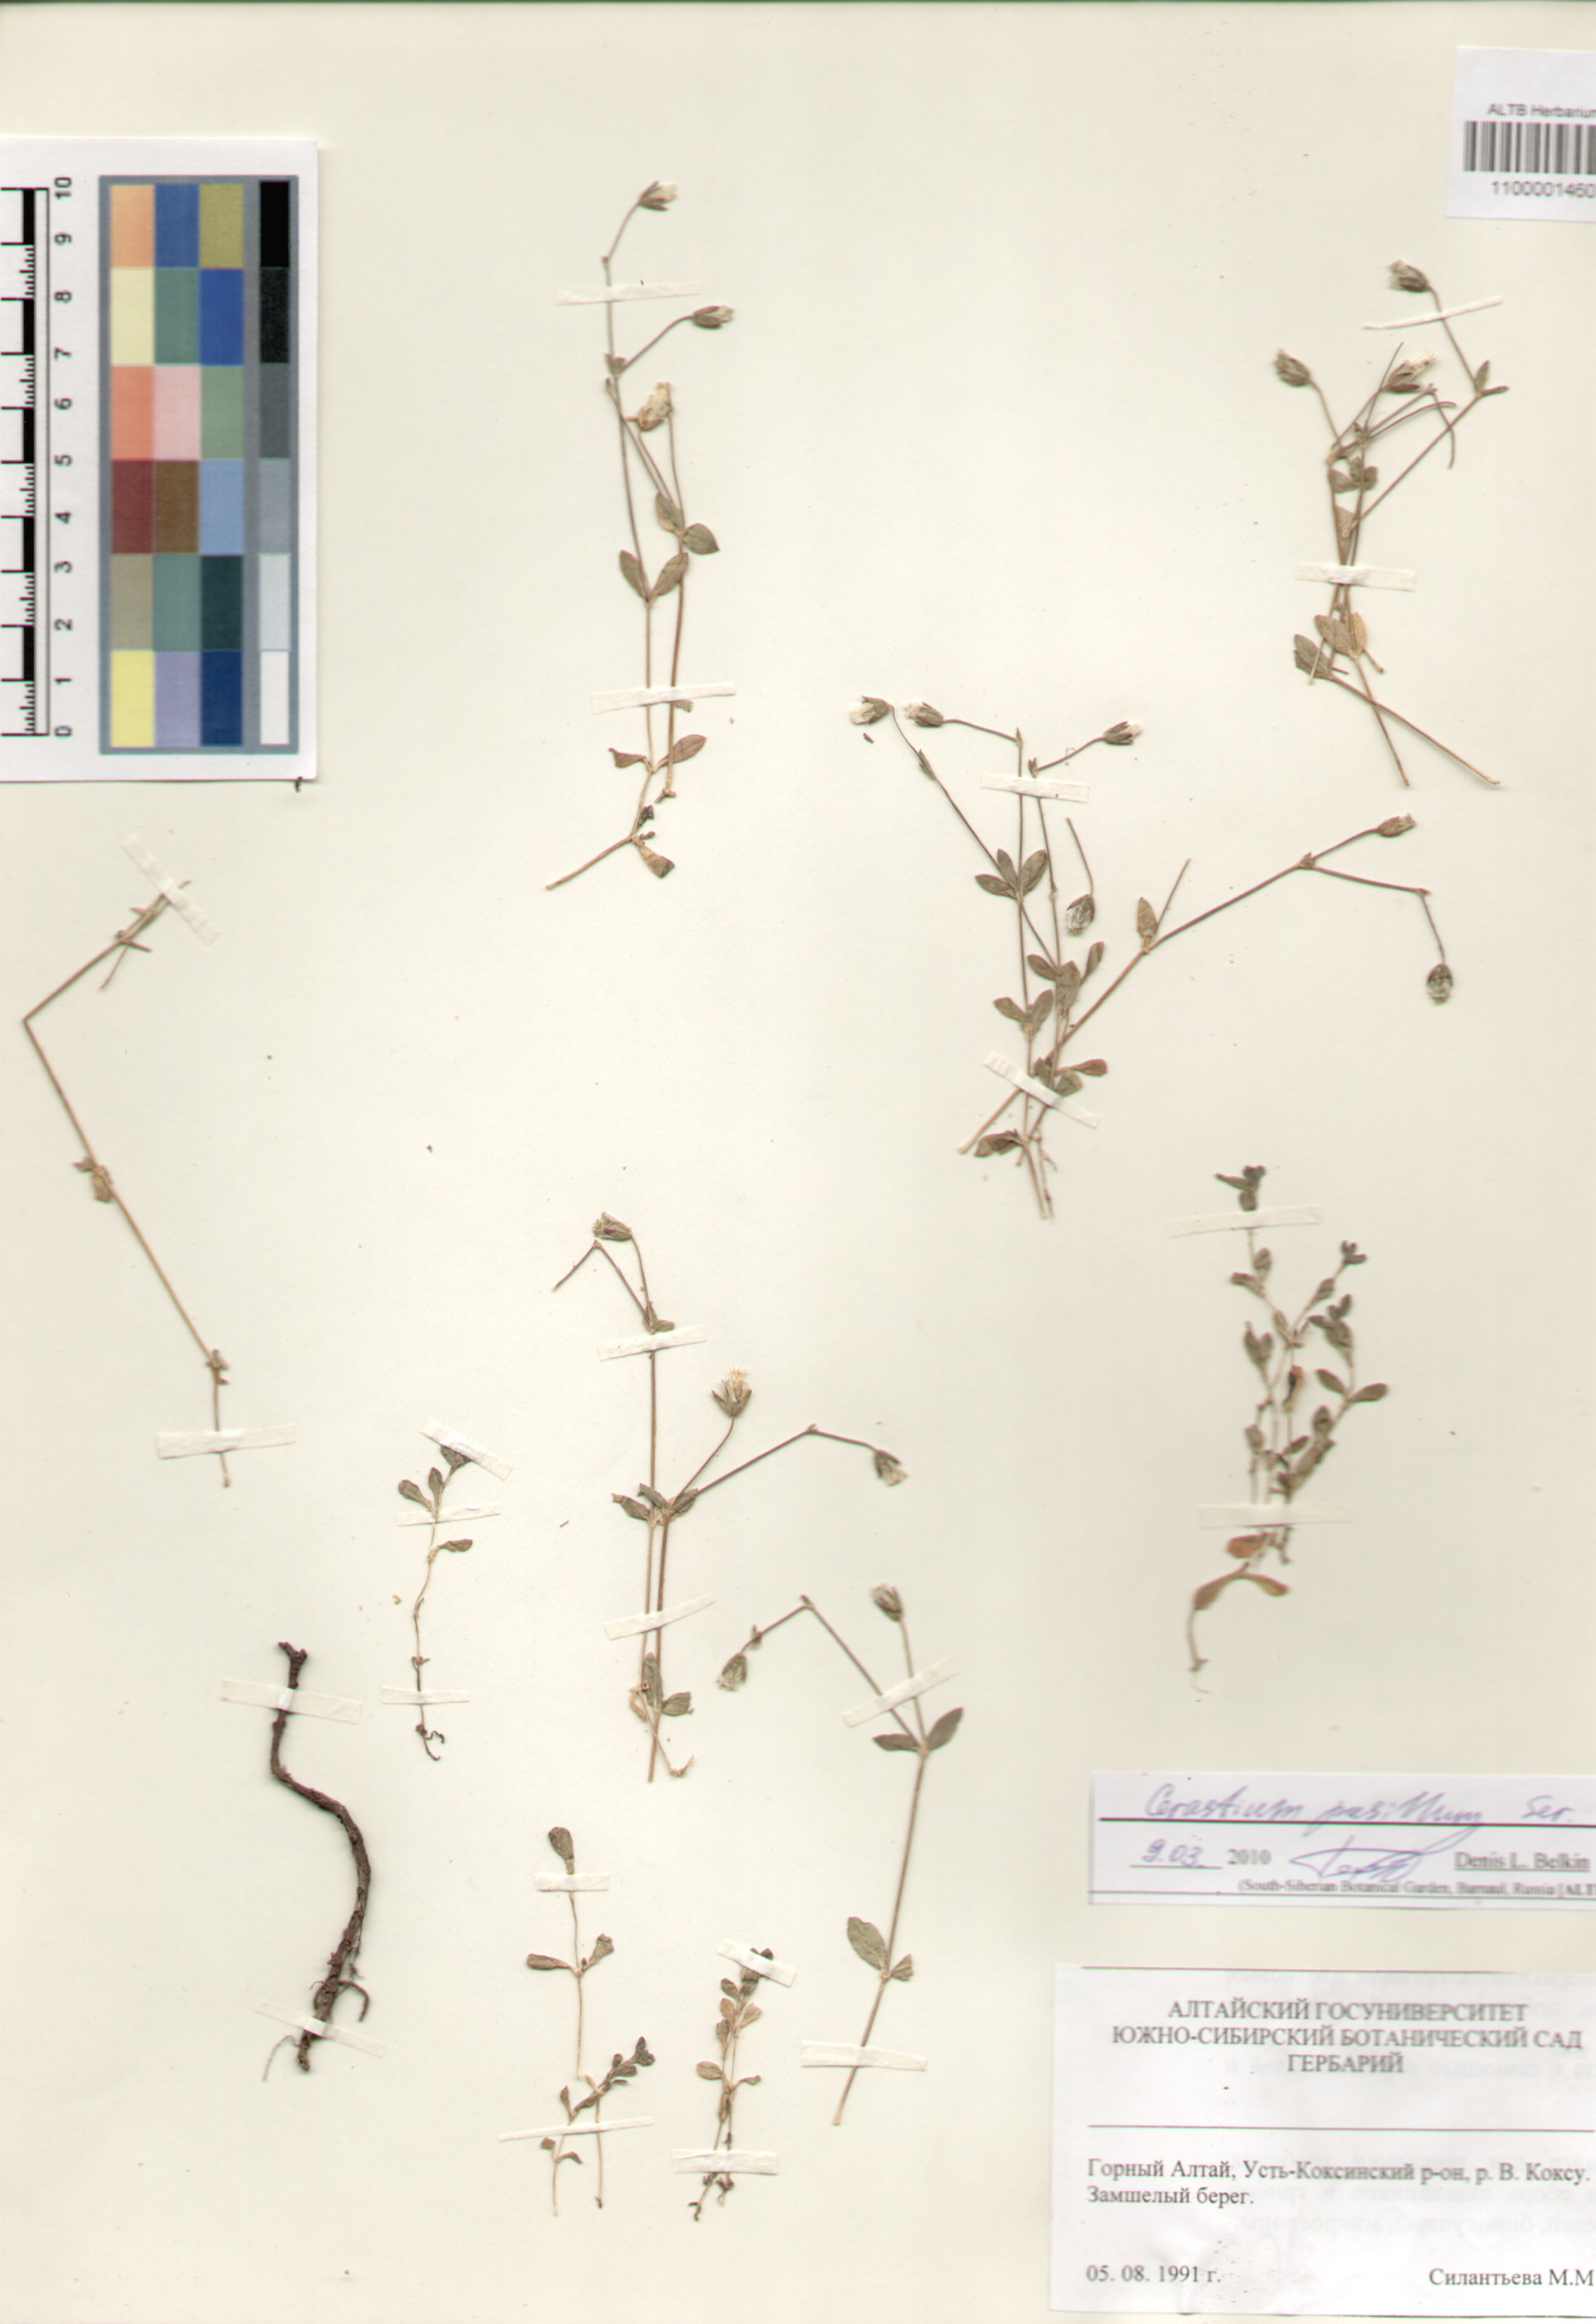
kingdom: Plantae
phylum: Tracheophyta
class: Magnoliopsida
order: Caryophyllales
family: Caryophyllaceae
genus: Cerastium
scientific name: Cerastium pusillum
